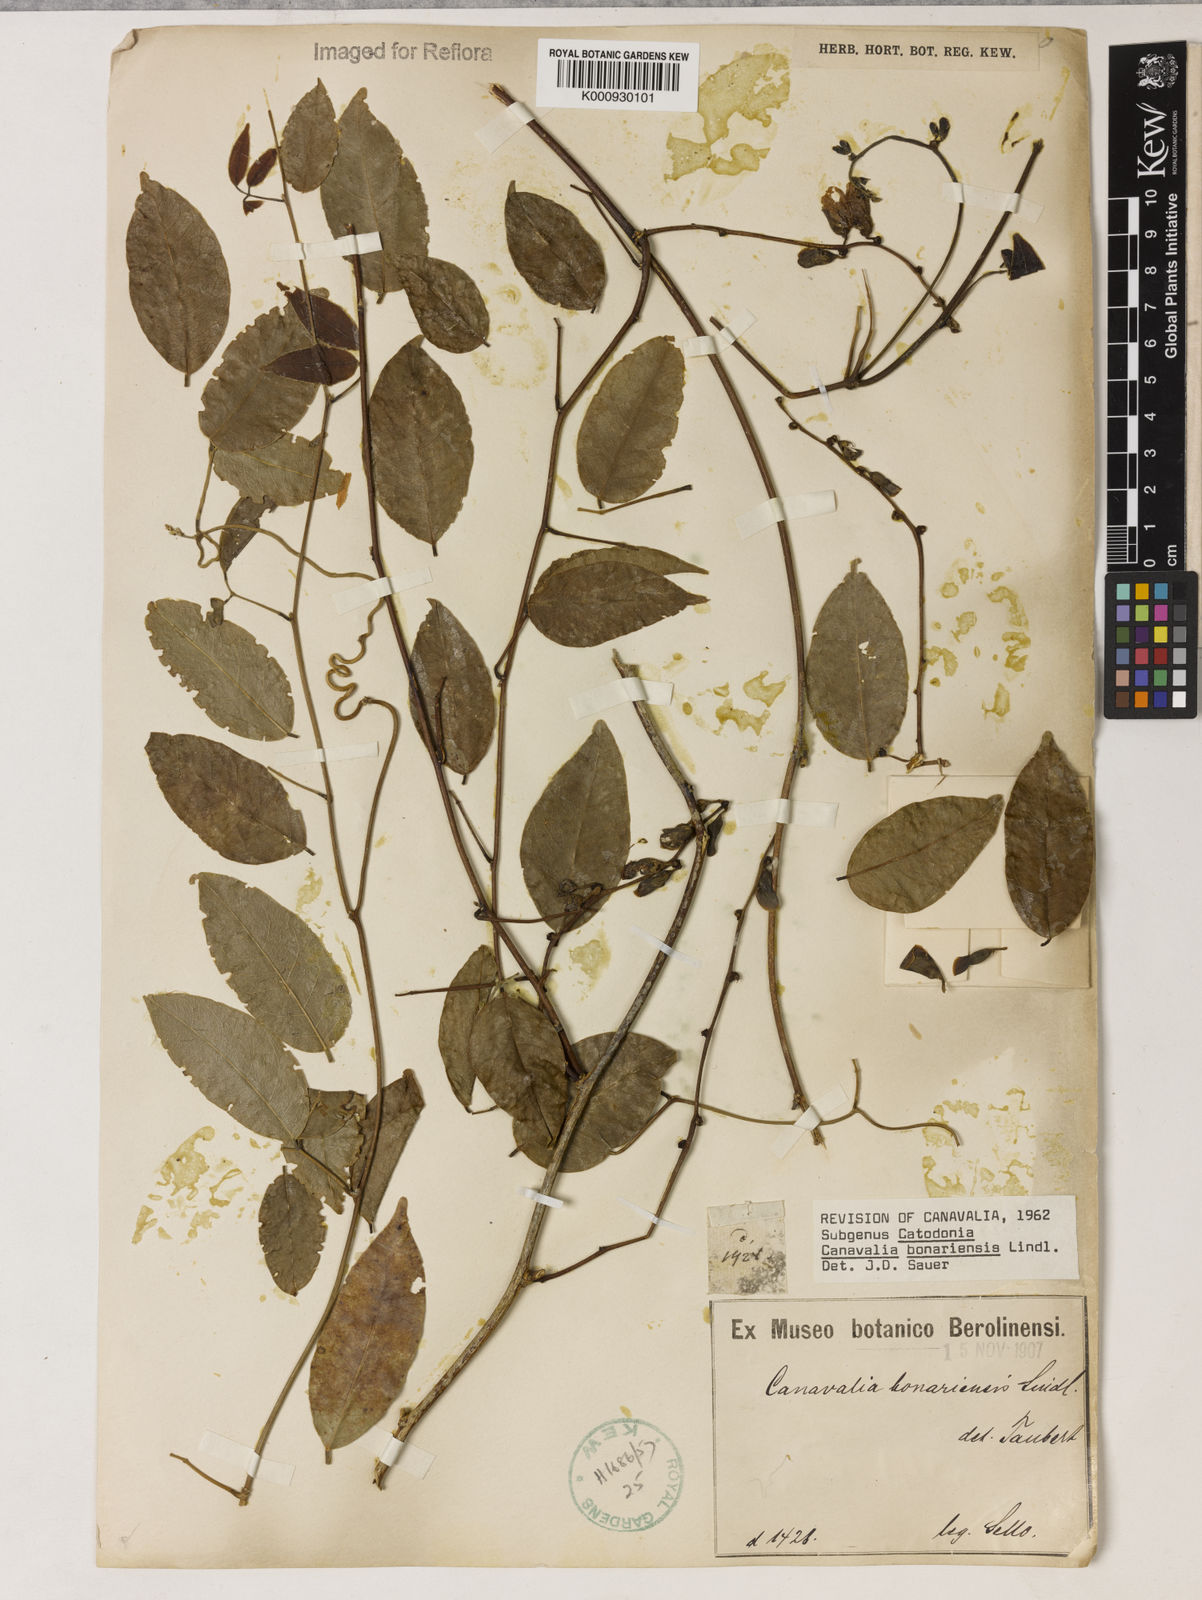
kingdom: Plantae
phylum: Tracheophyta
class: Magnoliopsida
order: Fabales
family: Fabaceae
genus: Canavalia
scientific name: Canavalia bonariensis
